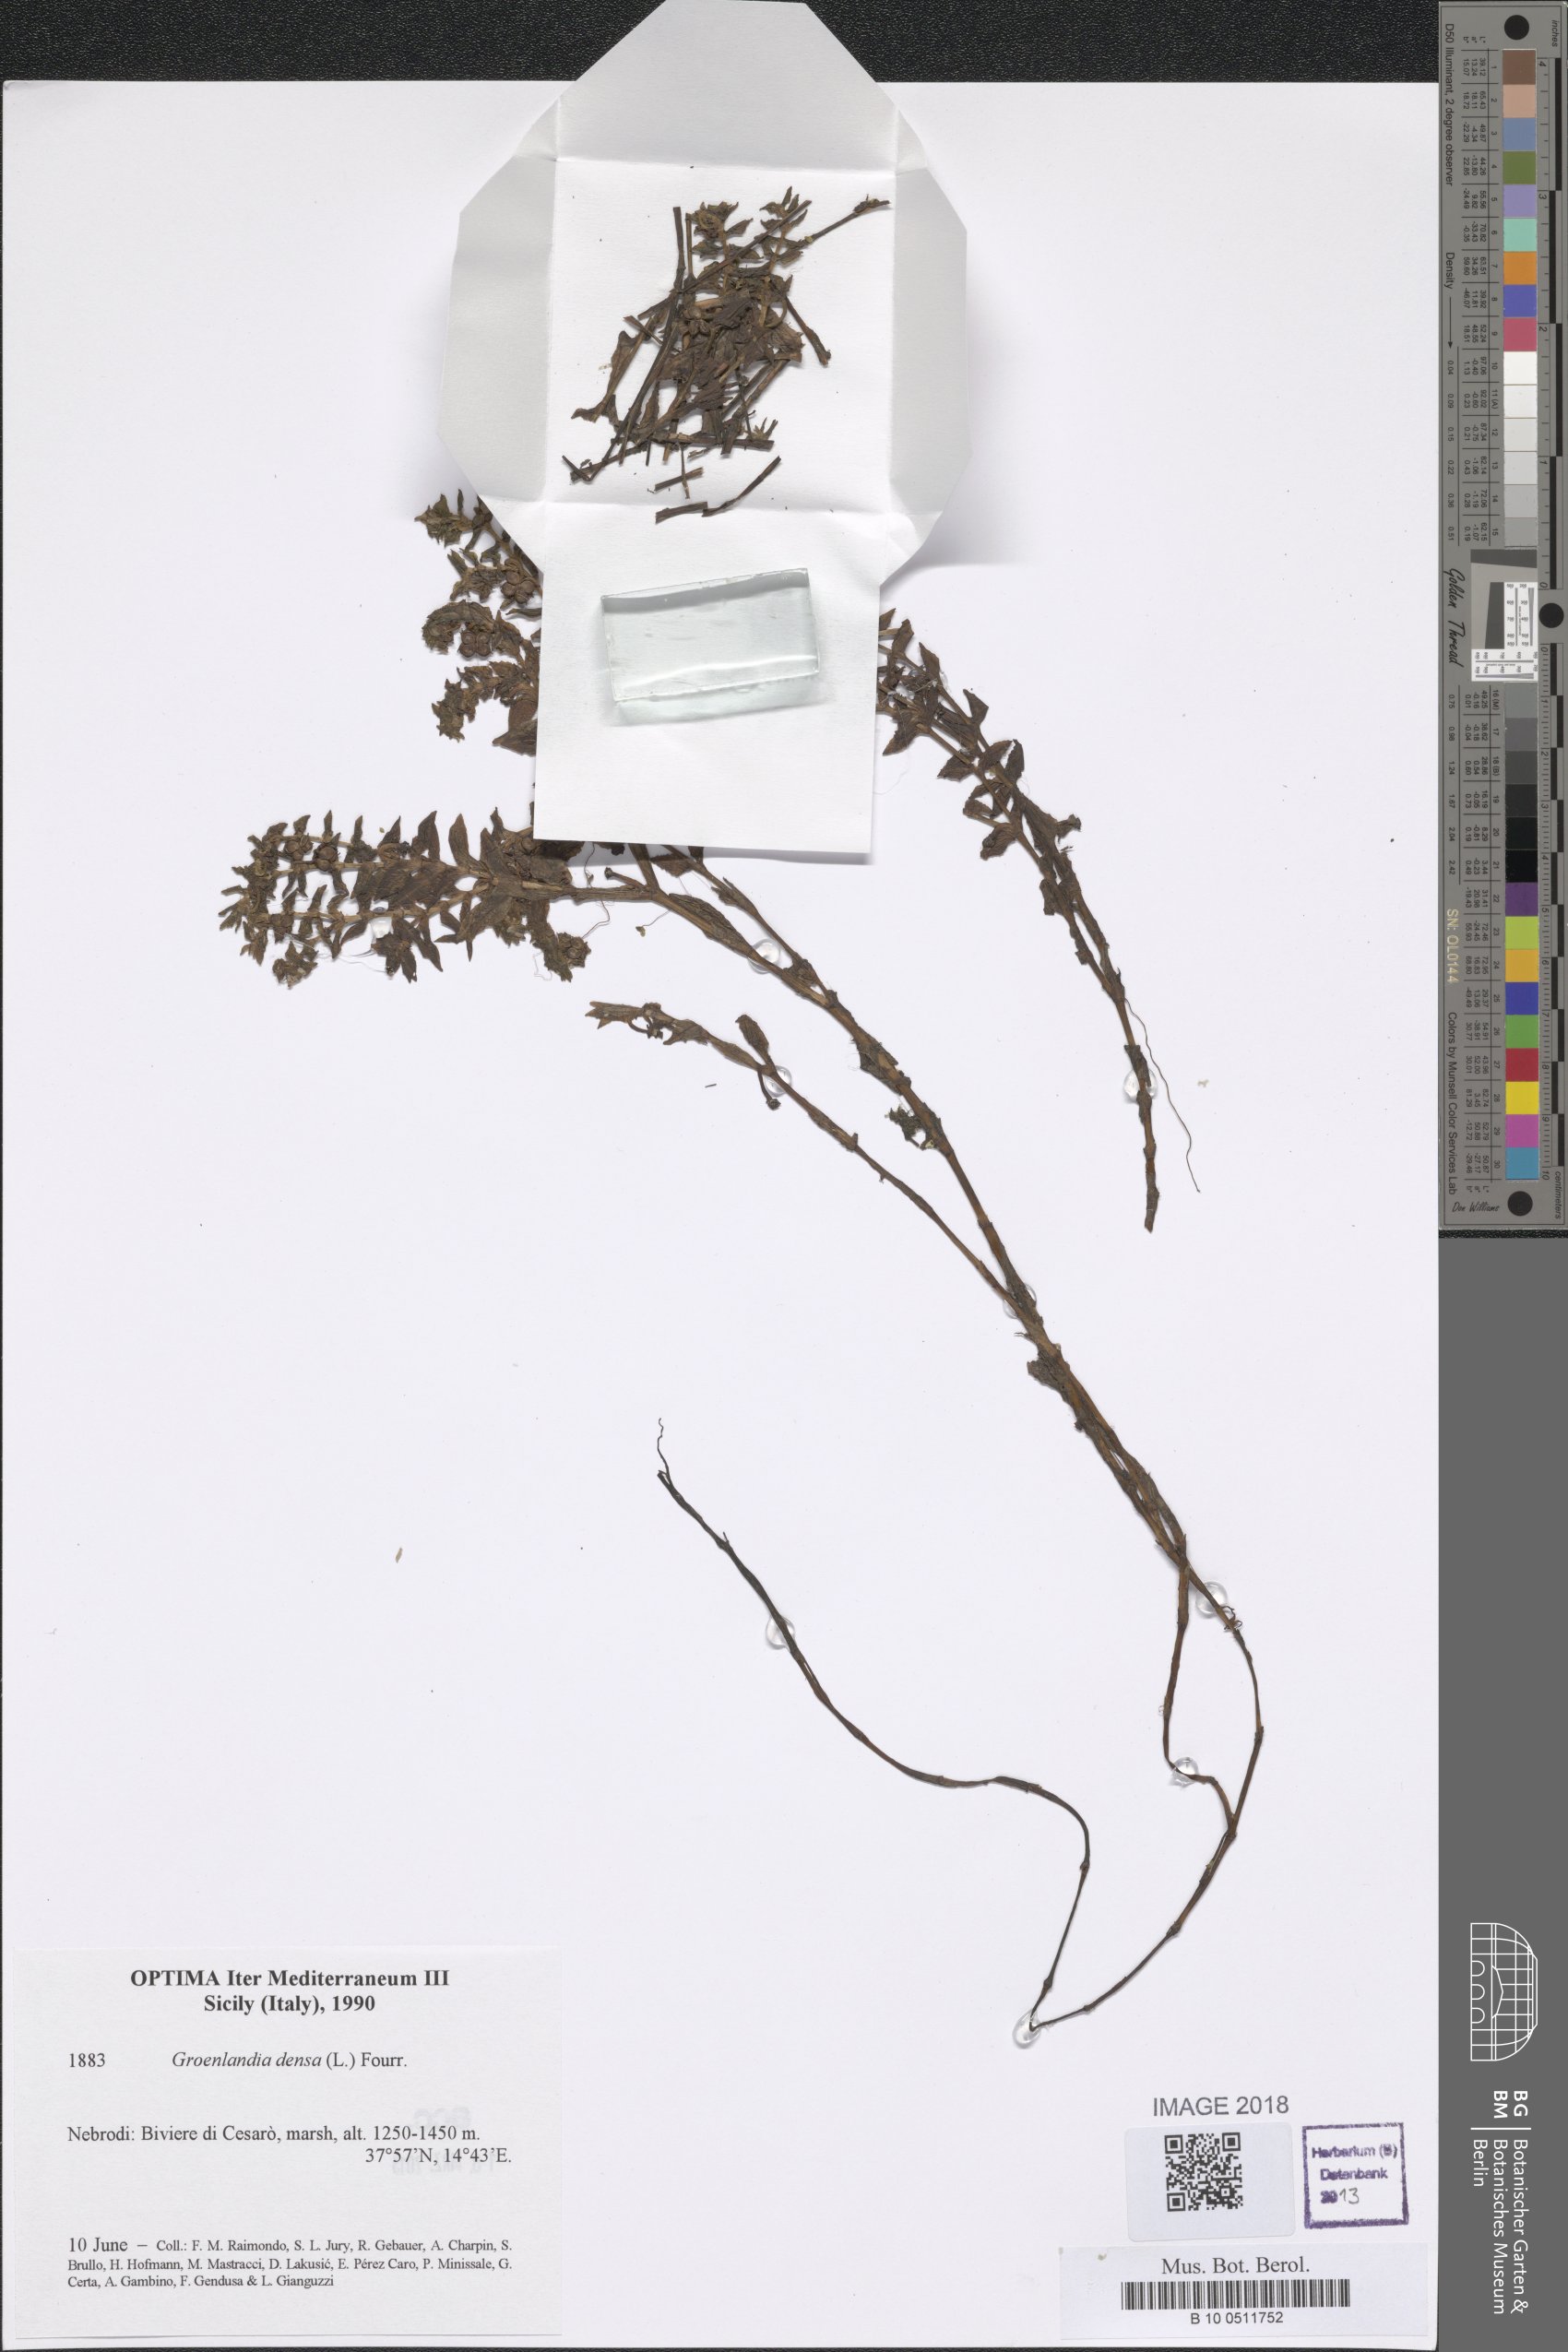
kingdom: Plantae
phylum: Tracheophyta
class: Liliopsida
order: Alismatales
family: Potamogetonaceae
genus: Groenlandia
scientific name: Groenlandia densa
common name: Opposite-leaved pondweed
